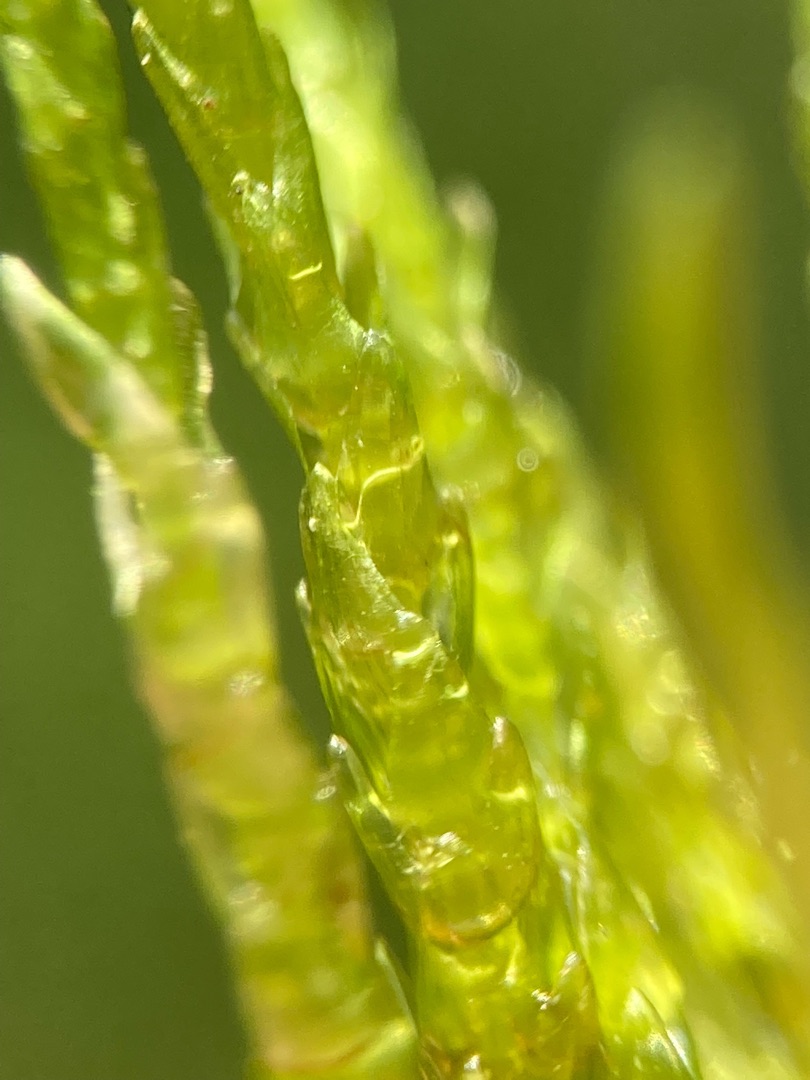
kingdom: Plantae
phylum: Bryophyta
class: Bryopsida
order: Hypnales
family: Calliergonaceae
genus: Straminergon
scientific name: Straminergon stramineum
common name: Tråd-skebladsmos
